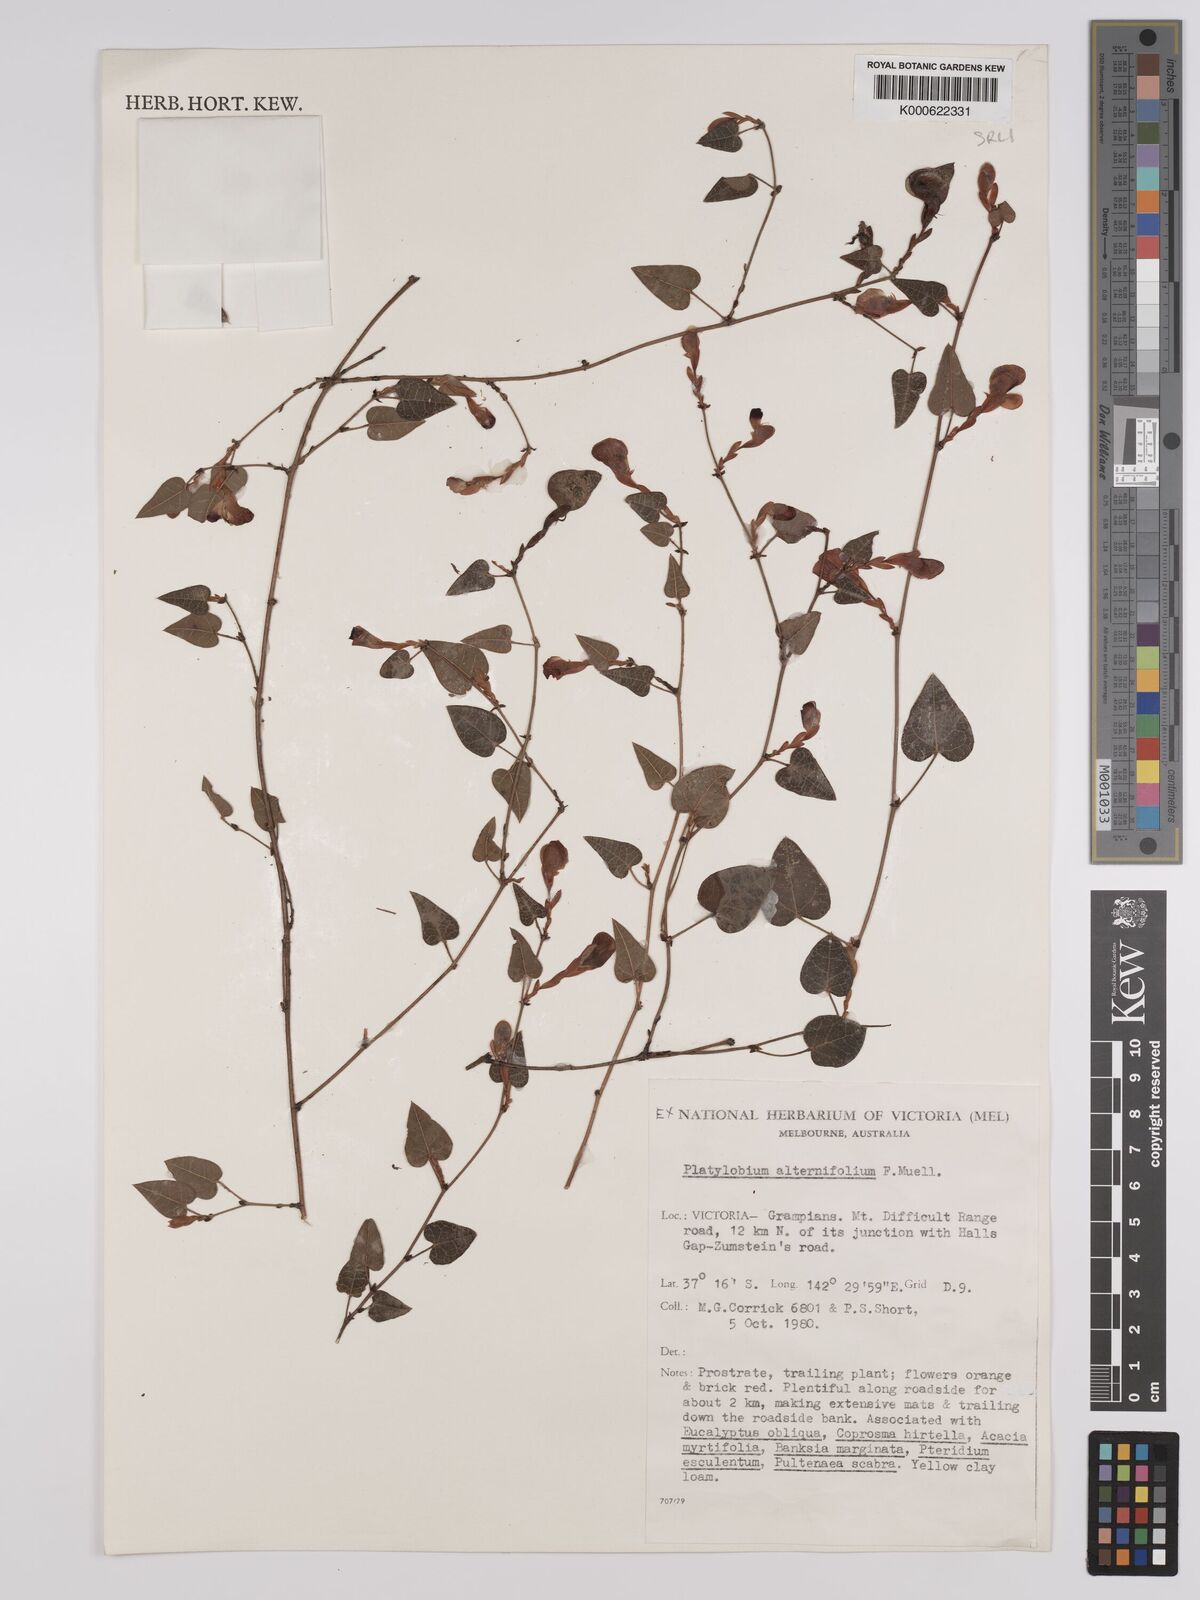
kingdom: Plantae
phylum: Tracheophyta
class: Magnoliopsida
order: Fabales
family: Fabaceae
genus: Platylobium
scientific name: Platylobium alternifolium
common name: Victorian flat-pea
